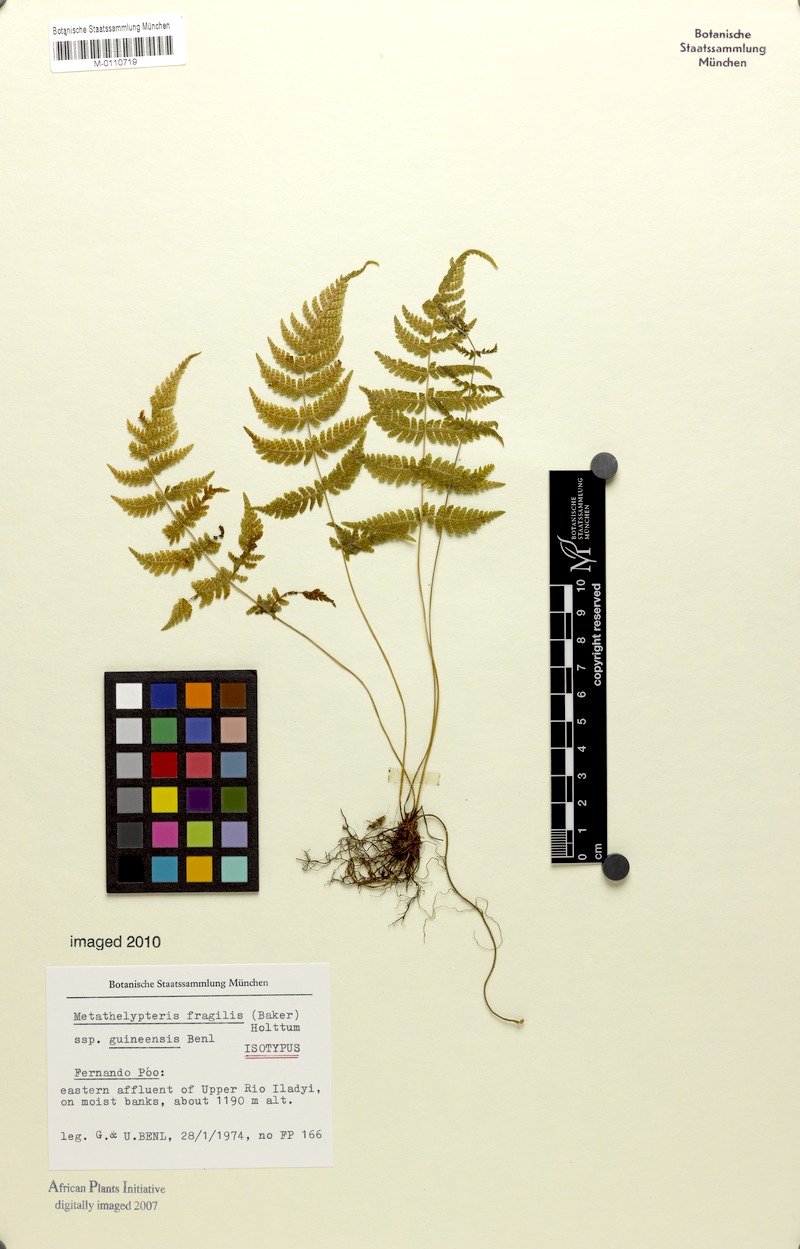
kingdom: Plantae
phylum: Tracheophyta
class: Polypodiopsida
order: Polypodiales
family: Thelypteridaceae
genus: Metathelypteris
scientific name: Metathelypteris fragilis
